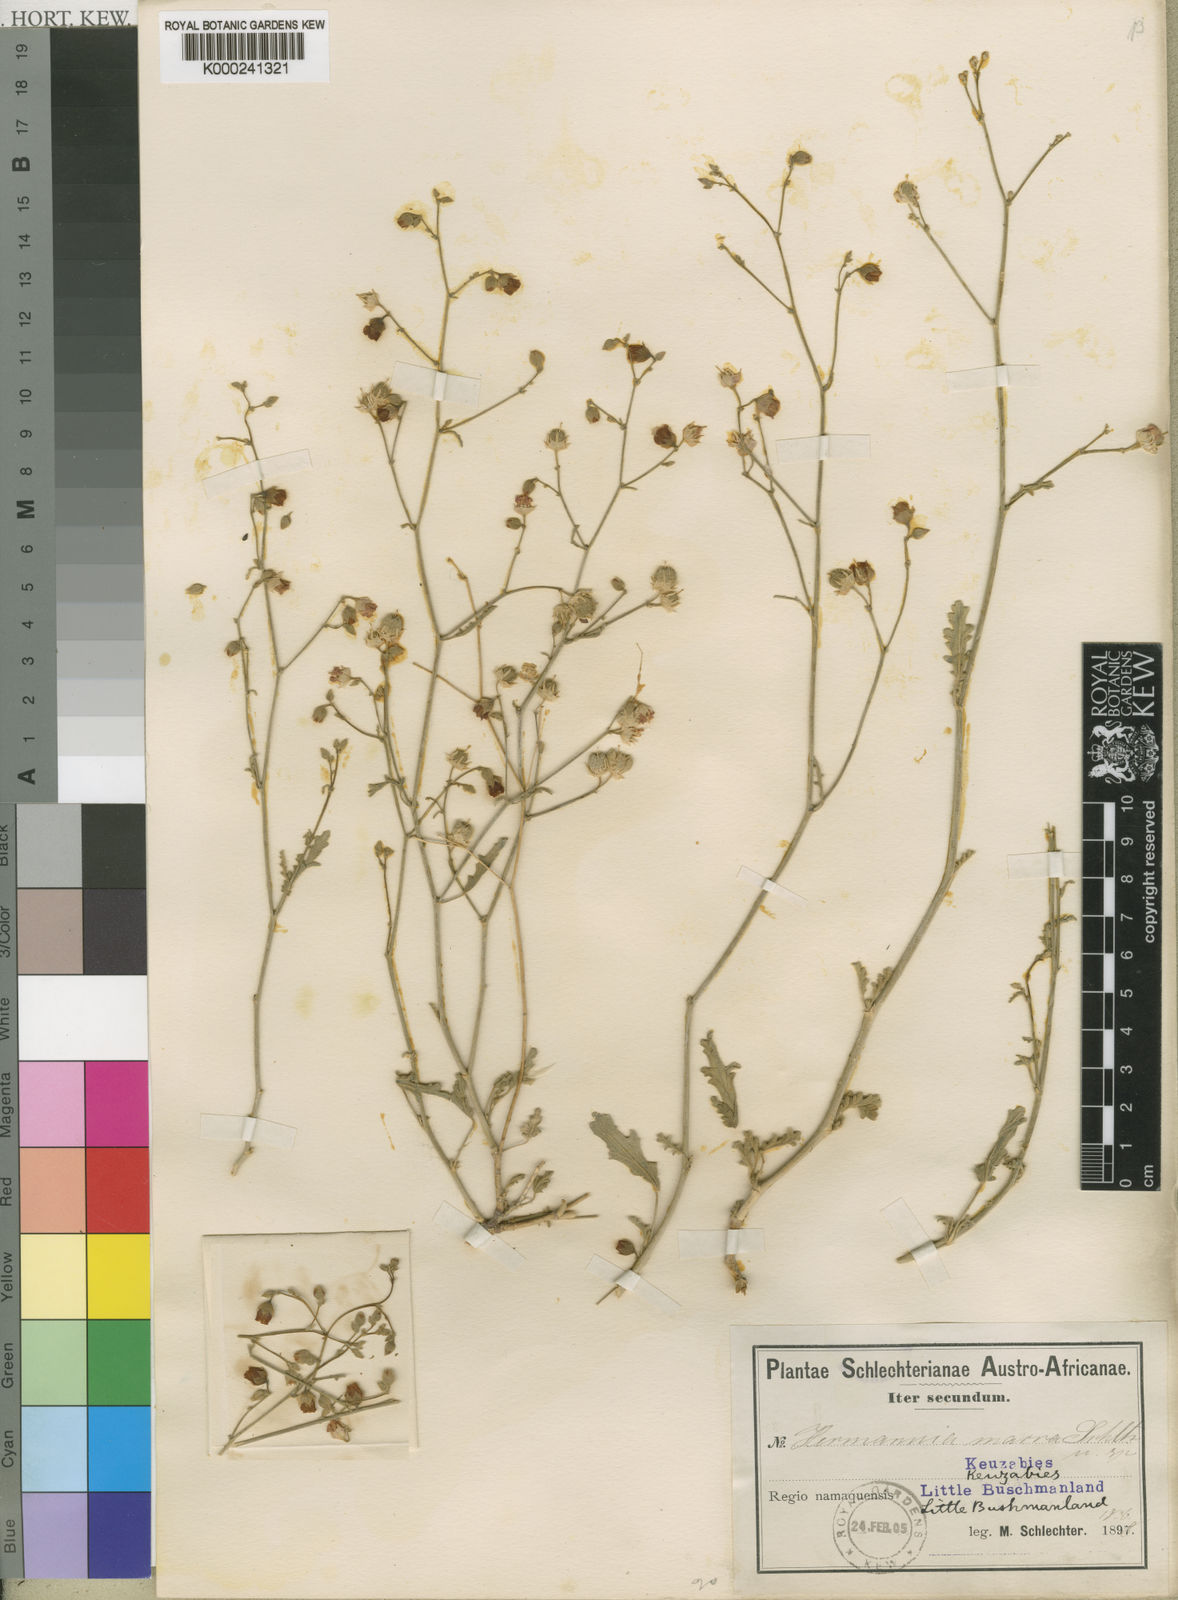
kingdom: Plantae
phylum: Tracheophyta
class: Magnoliopsida
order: Malvales
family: Malvaceae
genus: Hermannia
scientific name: Hermannia macra
